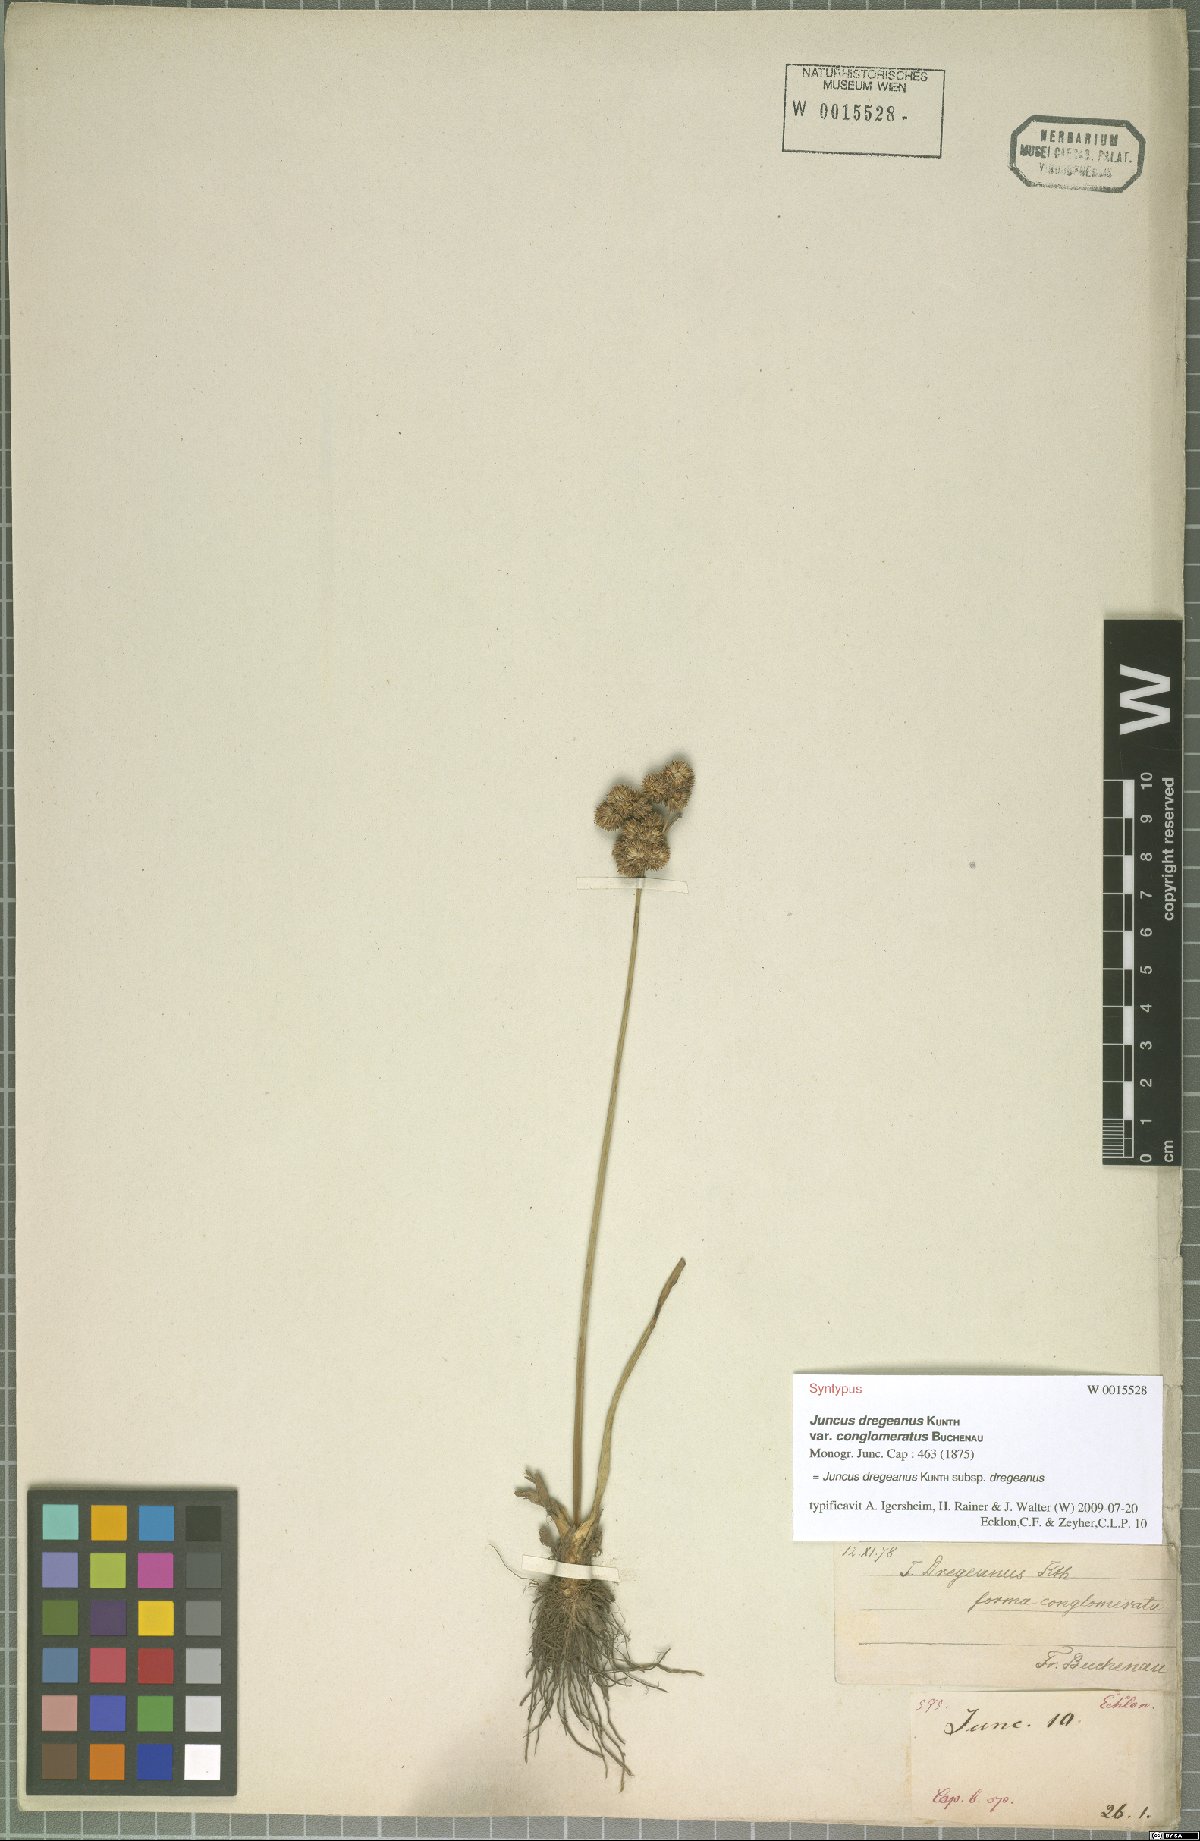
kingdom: Plantae
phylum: Tracheophyta
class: Liliopsida
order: Poales
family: Juncaceae
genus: Juncus
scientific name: Juncus dregeanus
